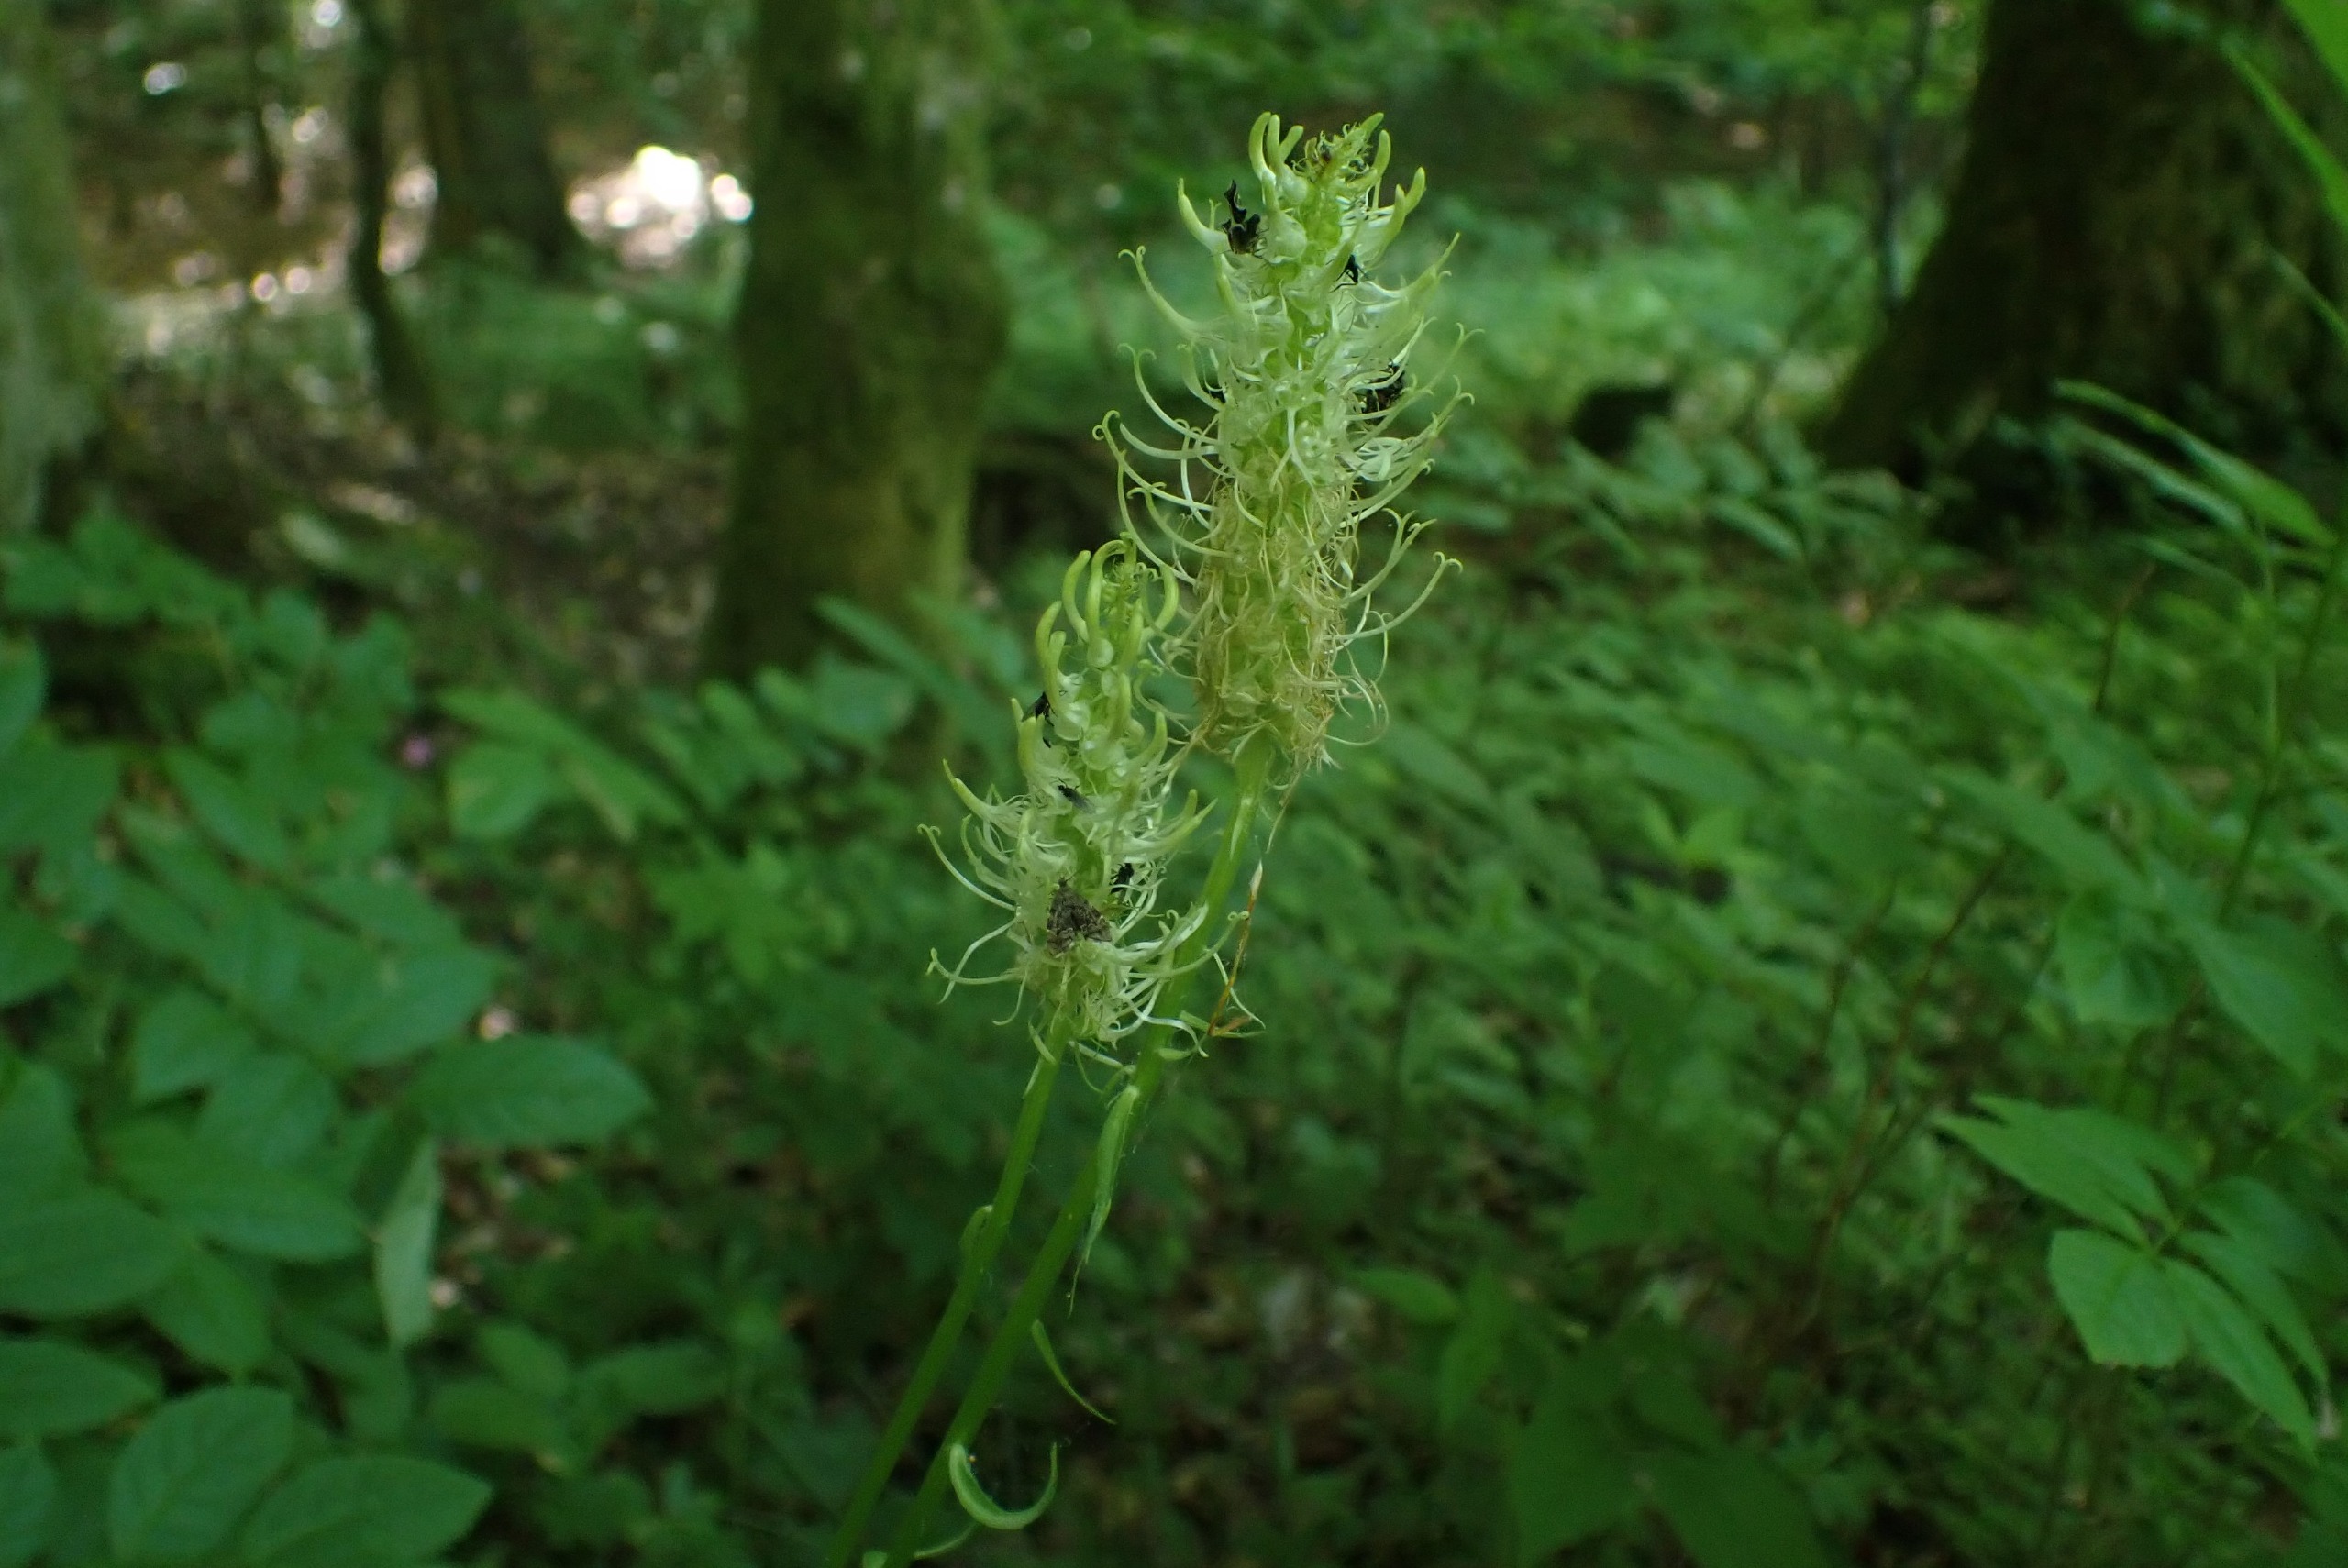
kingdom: Plantae
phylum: Tracheophyta
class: Magnoliopsida
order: Asterales
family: Campanulaceae
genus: Phyteuma
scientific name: Phyteuma spicatum
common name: Aks-rapunsel
